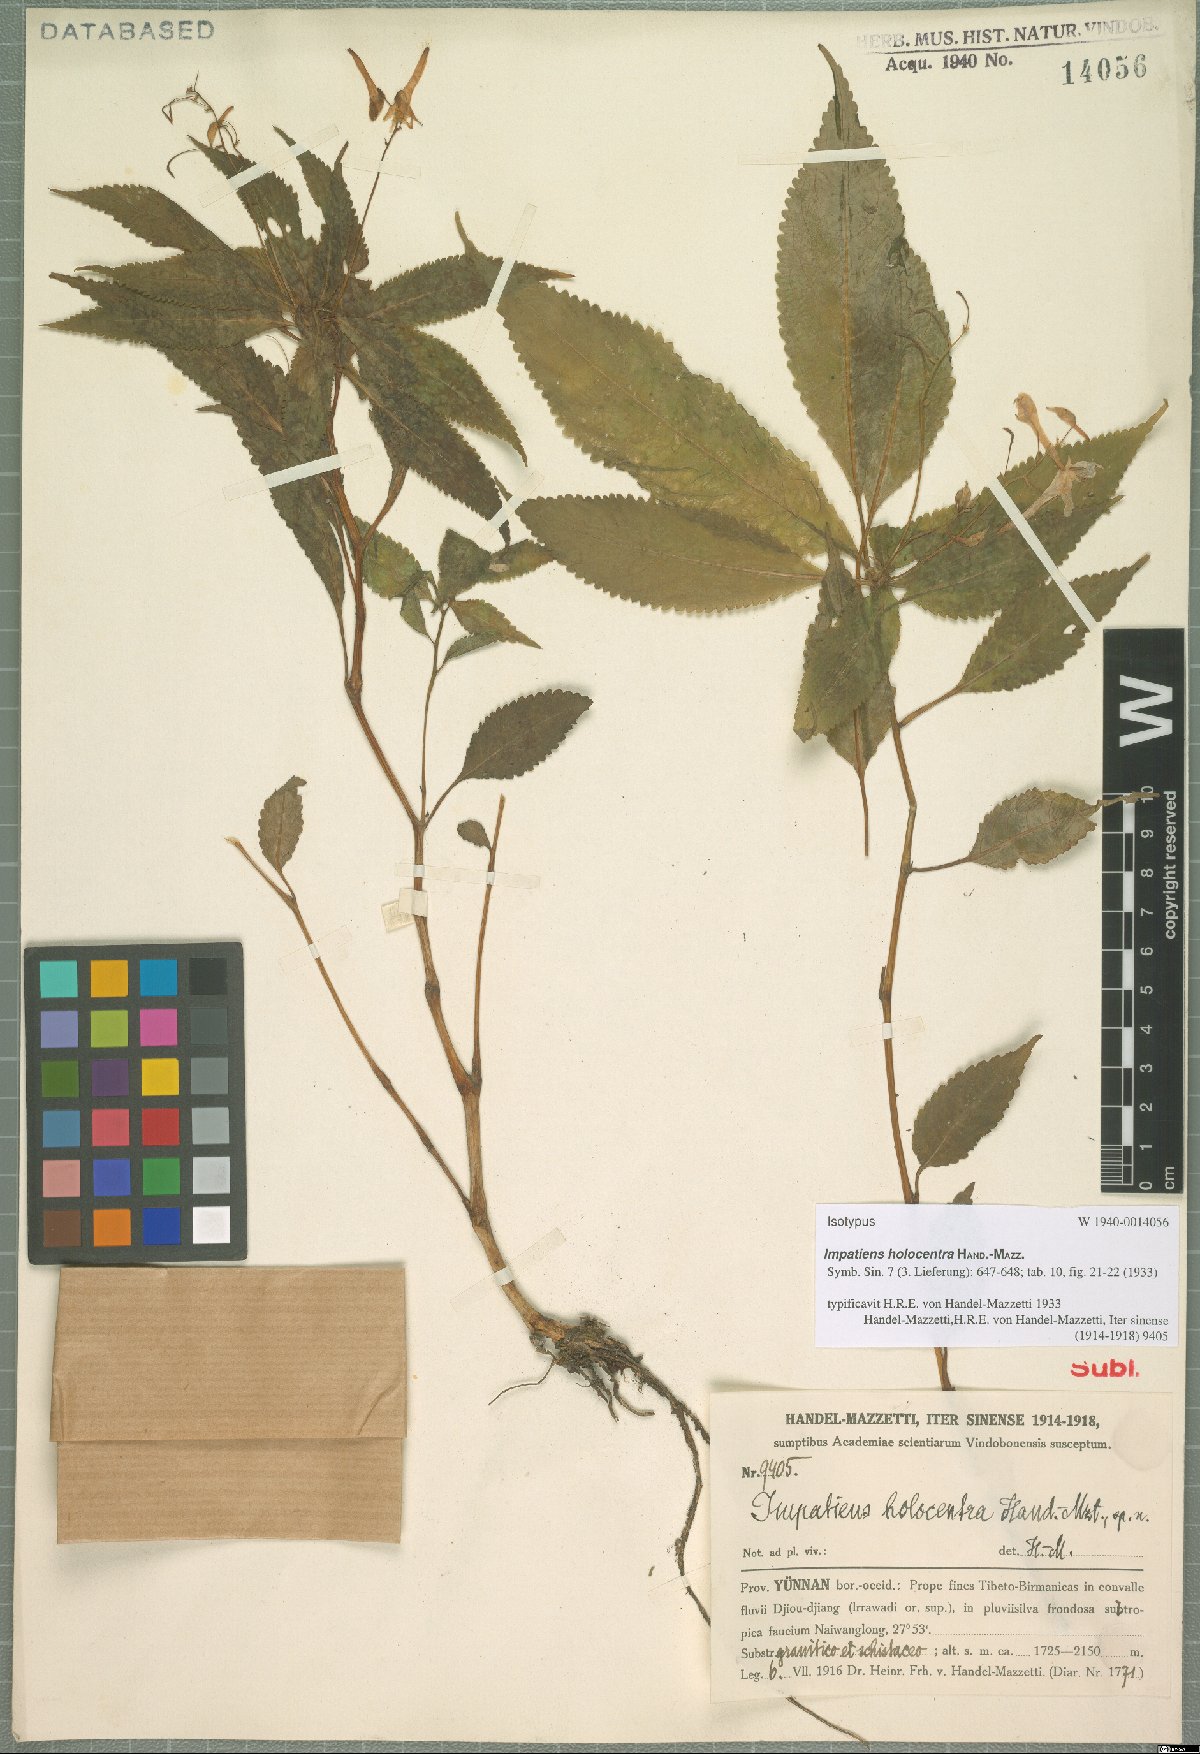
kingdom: Plantae
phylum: Tracheophyta
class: Magnoliopsida
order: Ericales
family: Balsaminaceae
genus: Impatiens
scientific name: Impatiens holocentra
